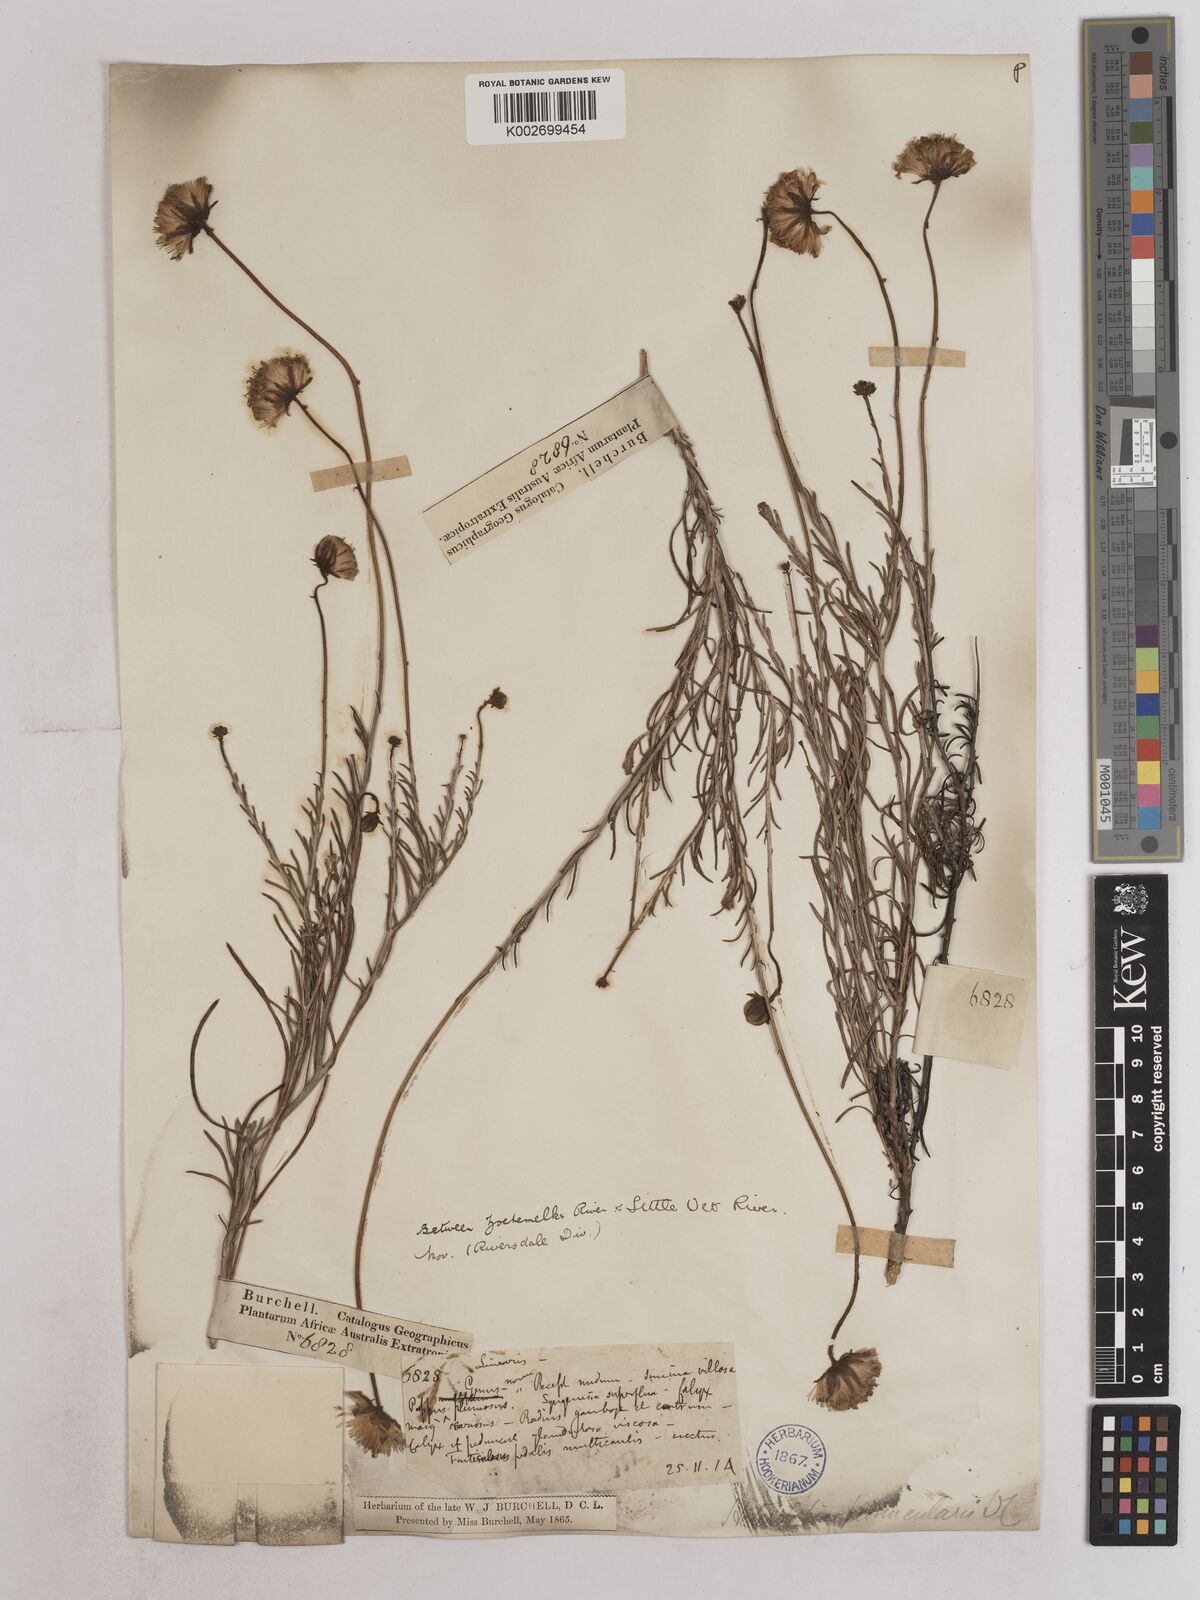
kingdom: Plantae
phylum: Tracheophyta
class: Magnoliopsida
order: Asterales
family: Asteraceae
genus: Heterolepis
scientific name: Heterolepis peduncularis
